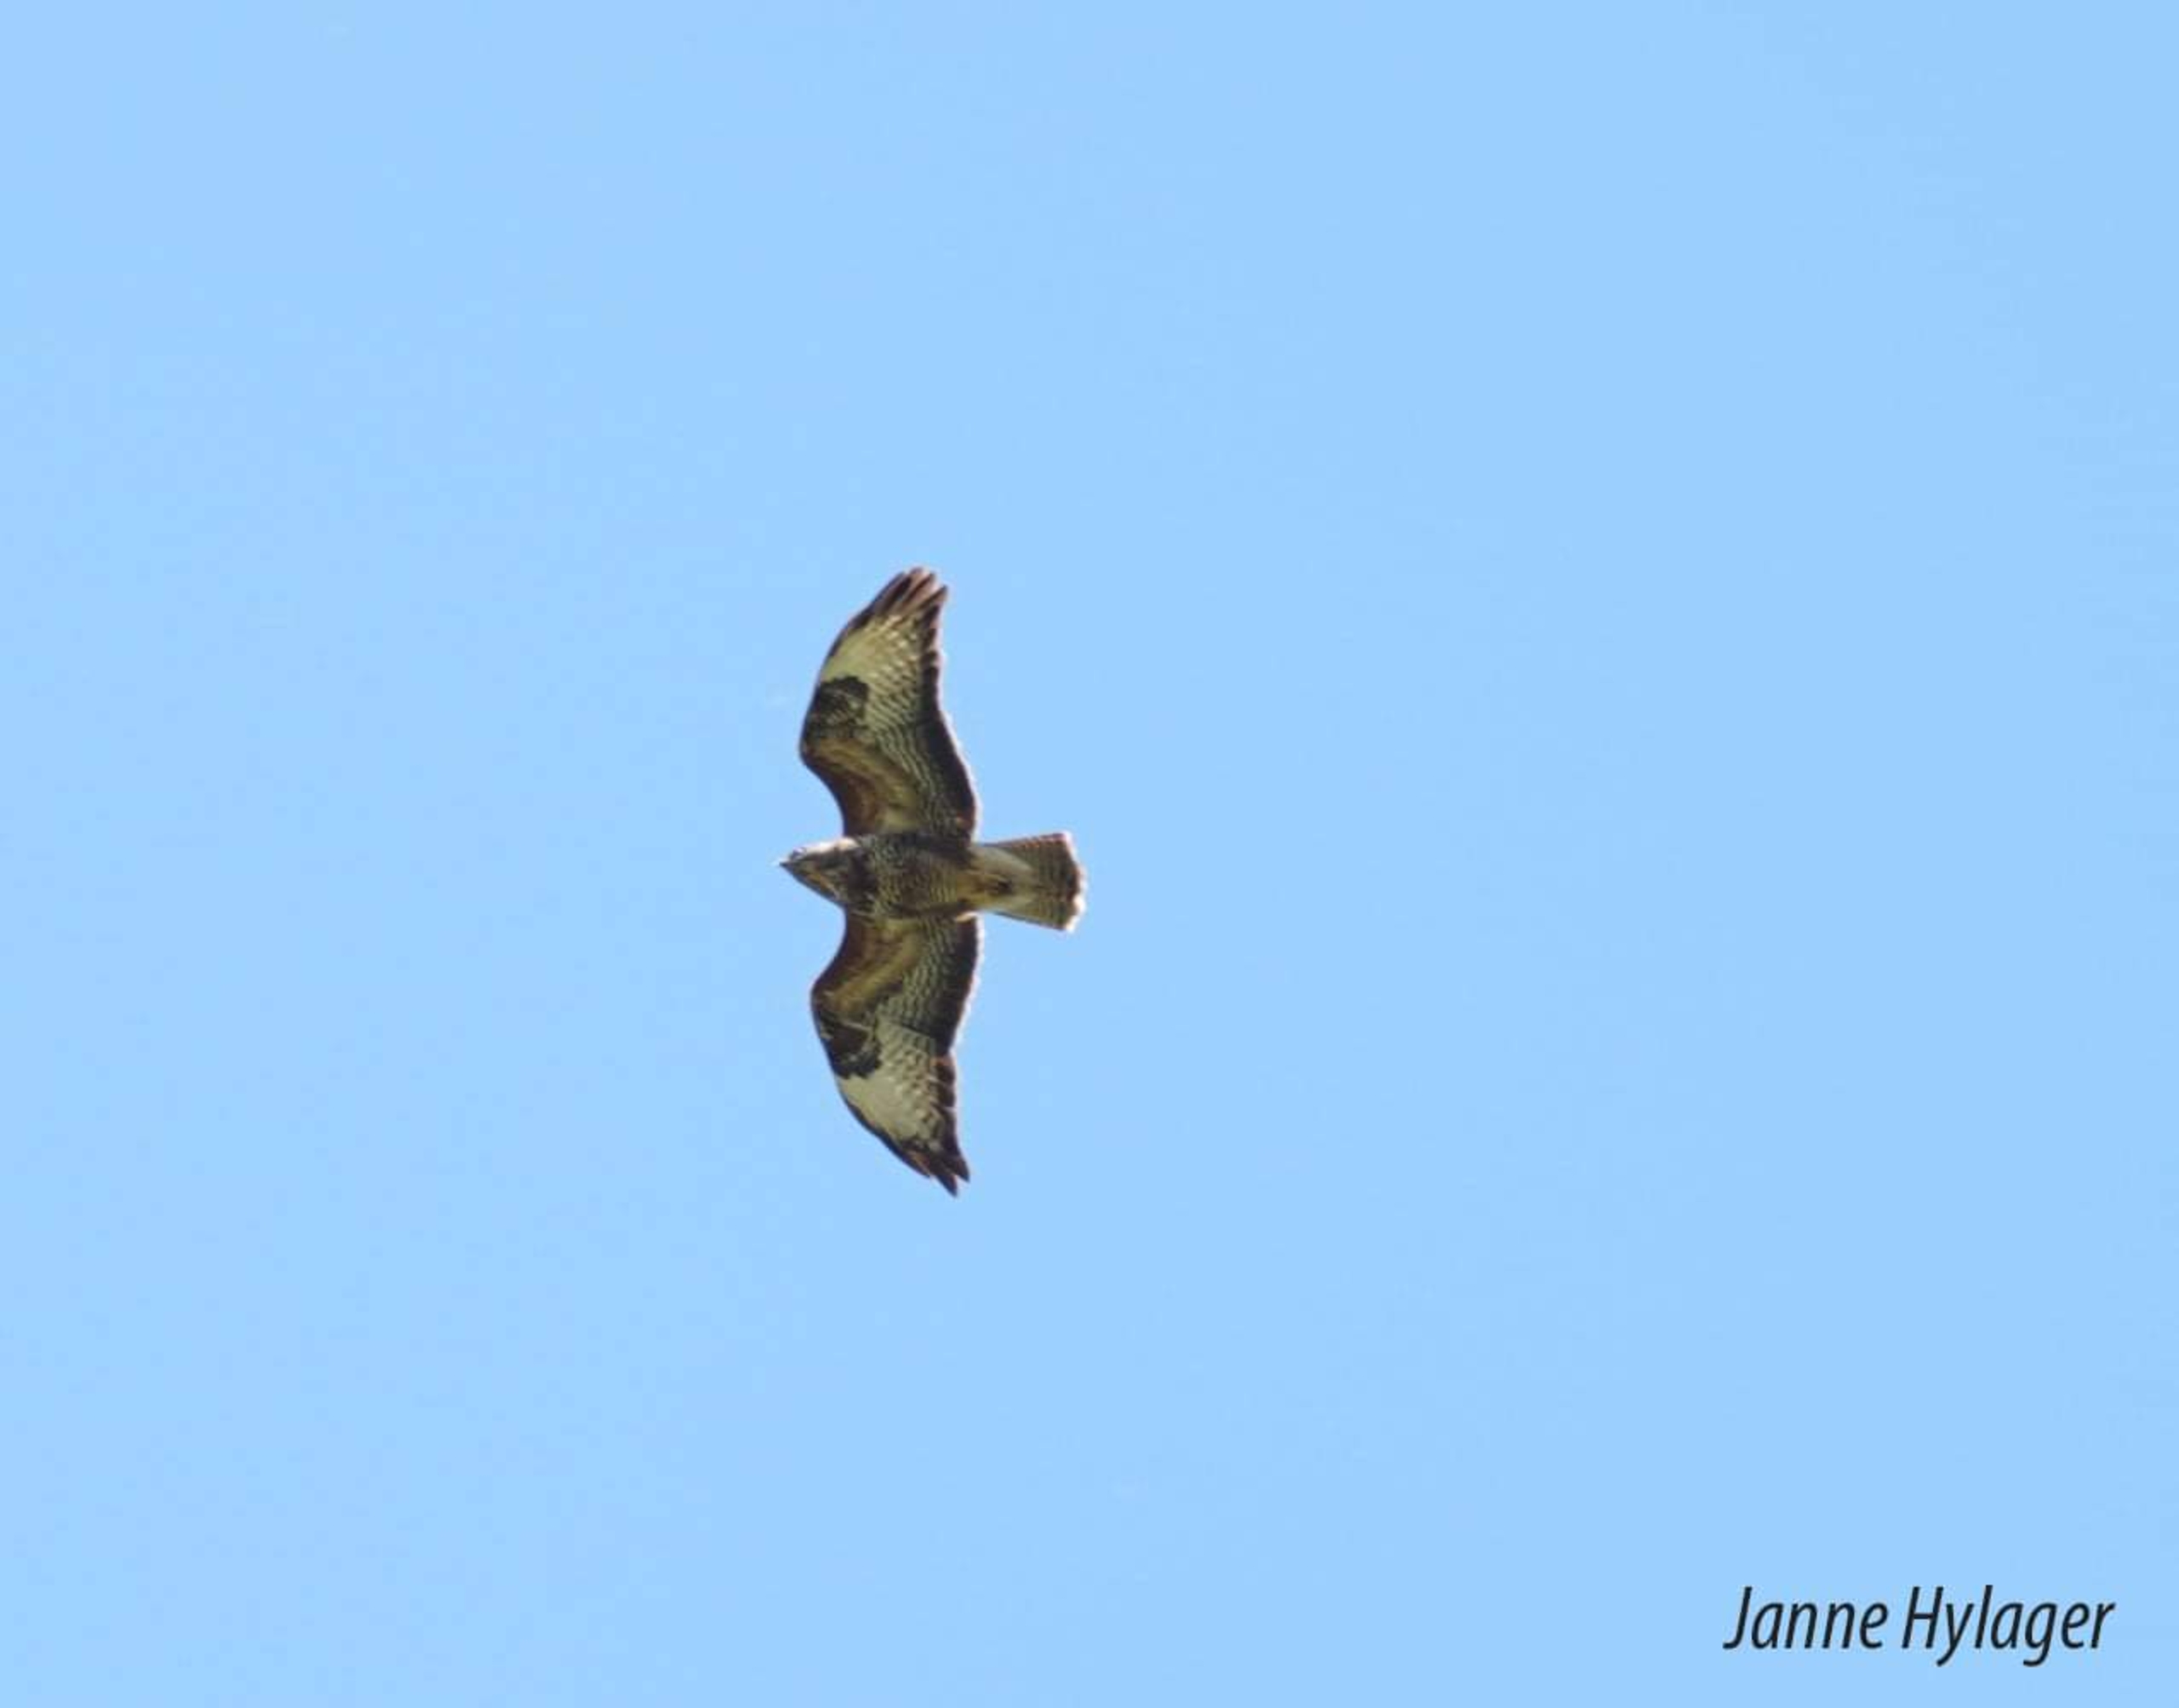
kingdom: Animalia
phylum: Chordata
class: Aves
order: Accipitriformes
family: Accipitridae
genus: Buteo
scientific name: Buteo buteo
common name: Musvåge
